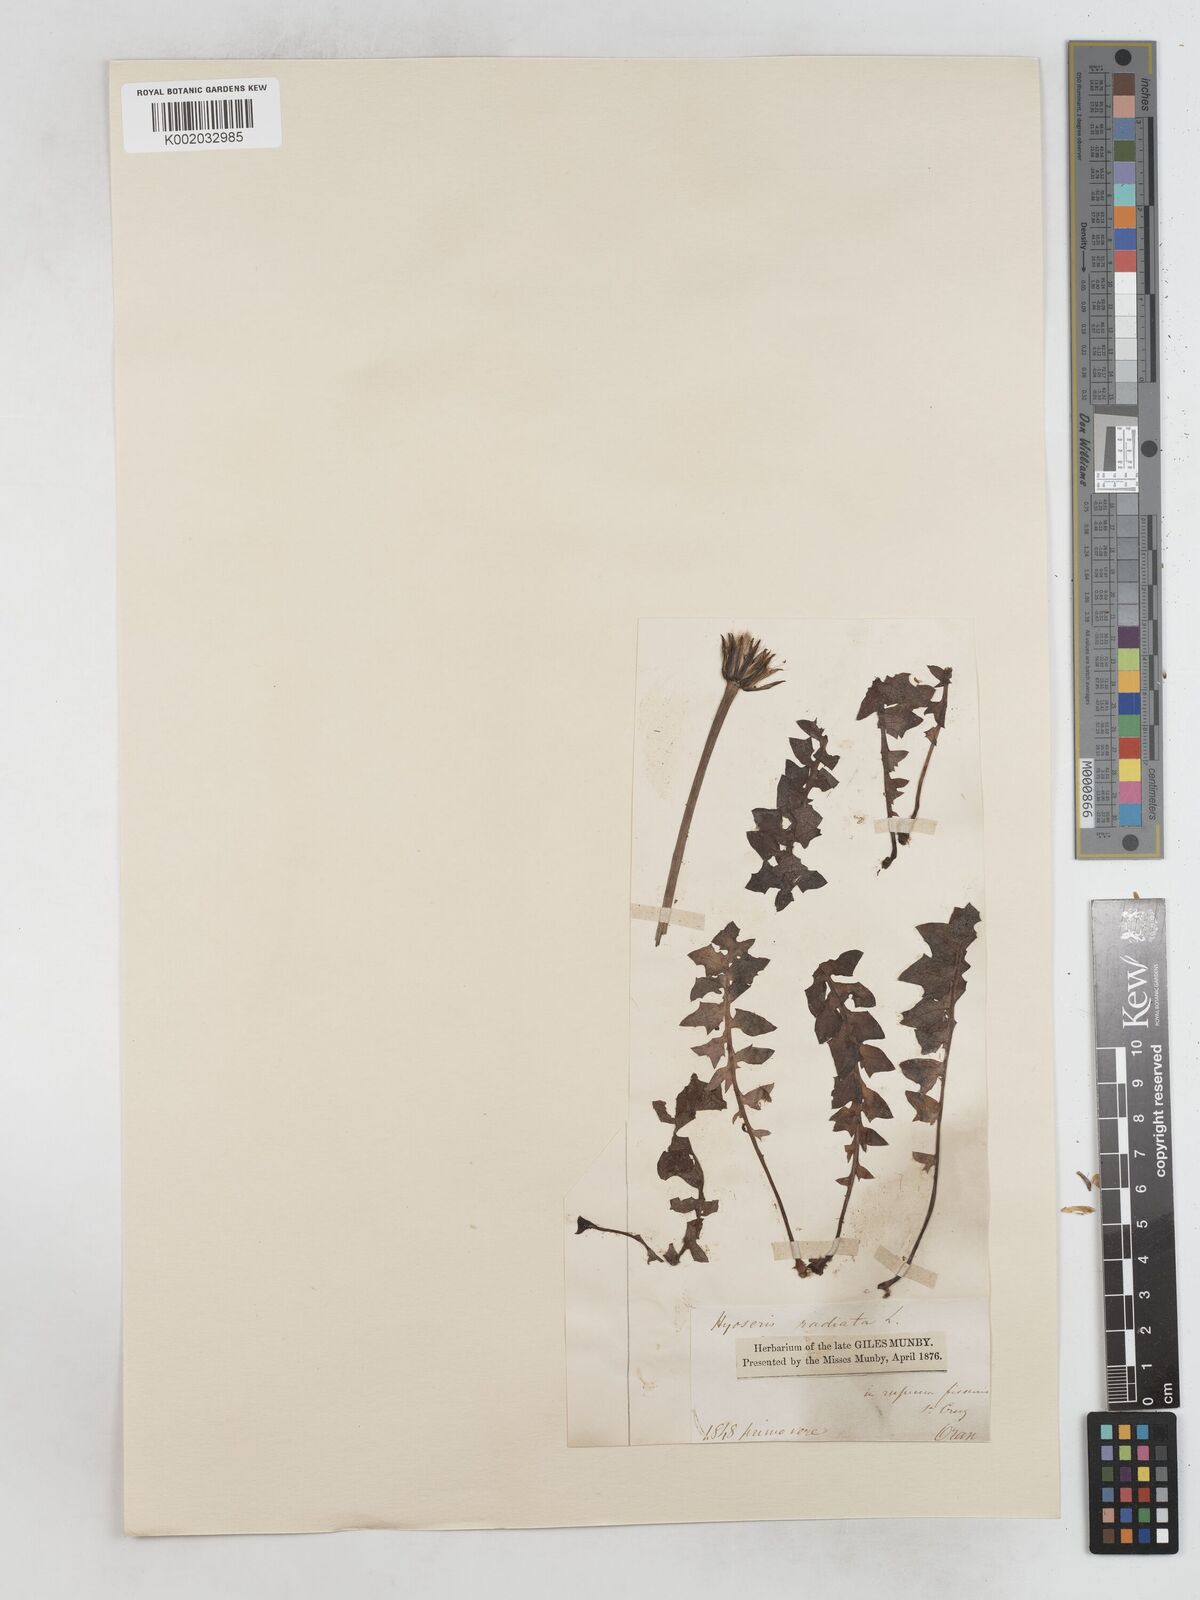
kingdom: Plantae
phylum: Tracheophyta
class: Magnoliopsida
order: Asterales
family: Asteraceae
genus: Hyoseris
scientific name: Hyoseris radiata
